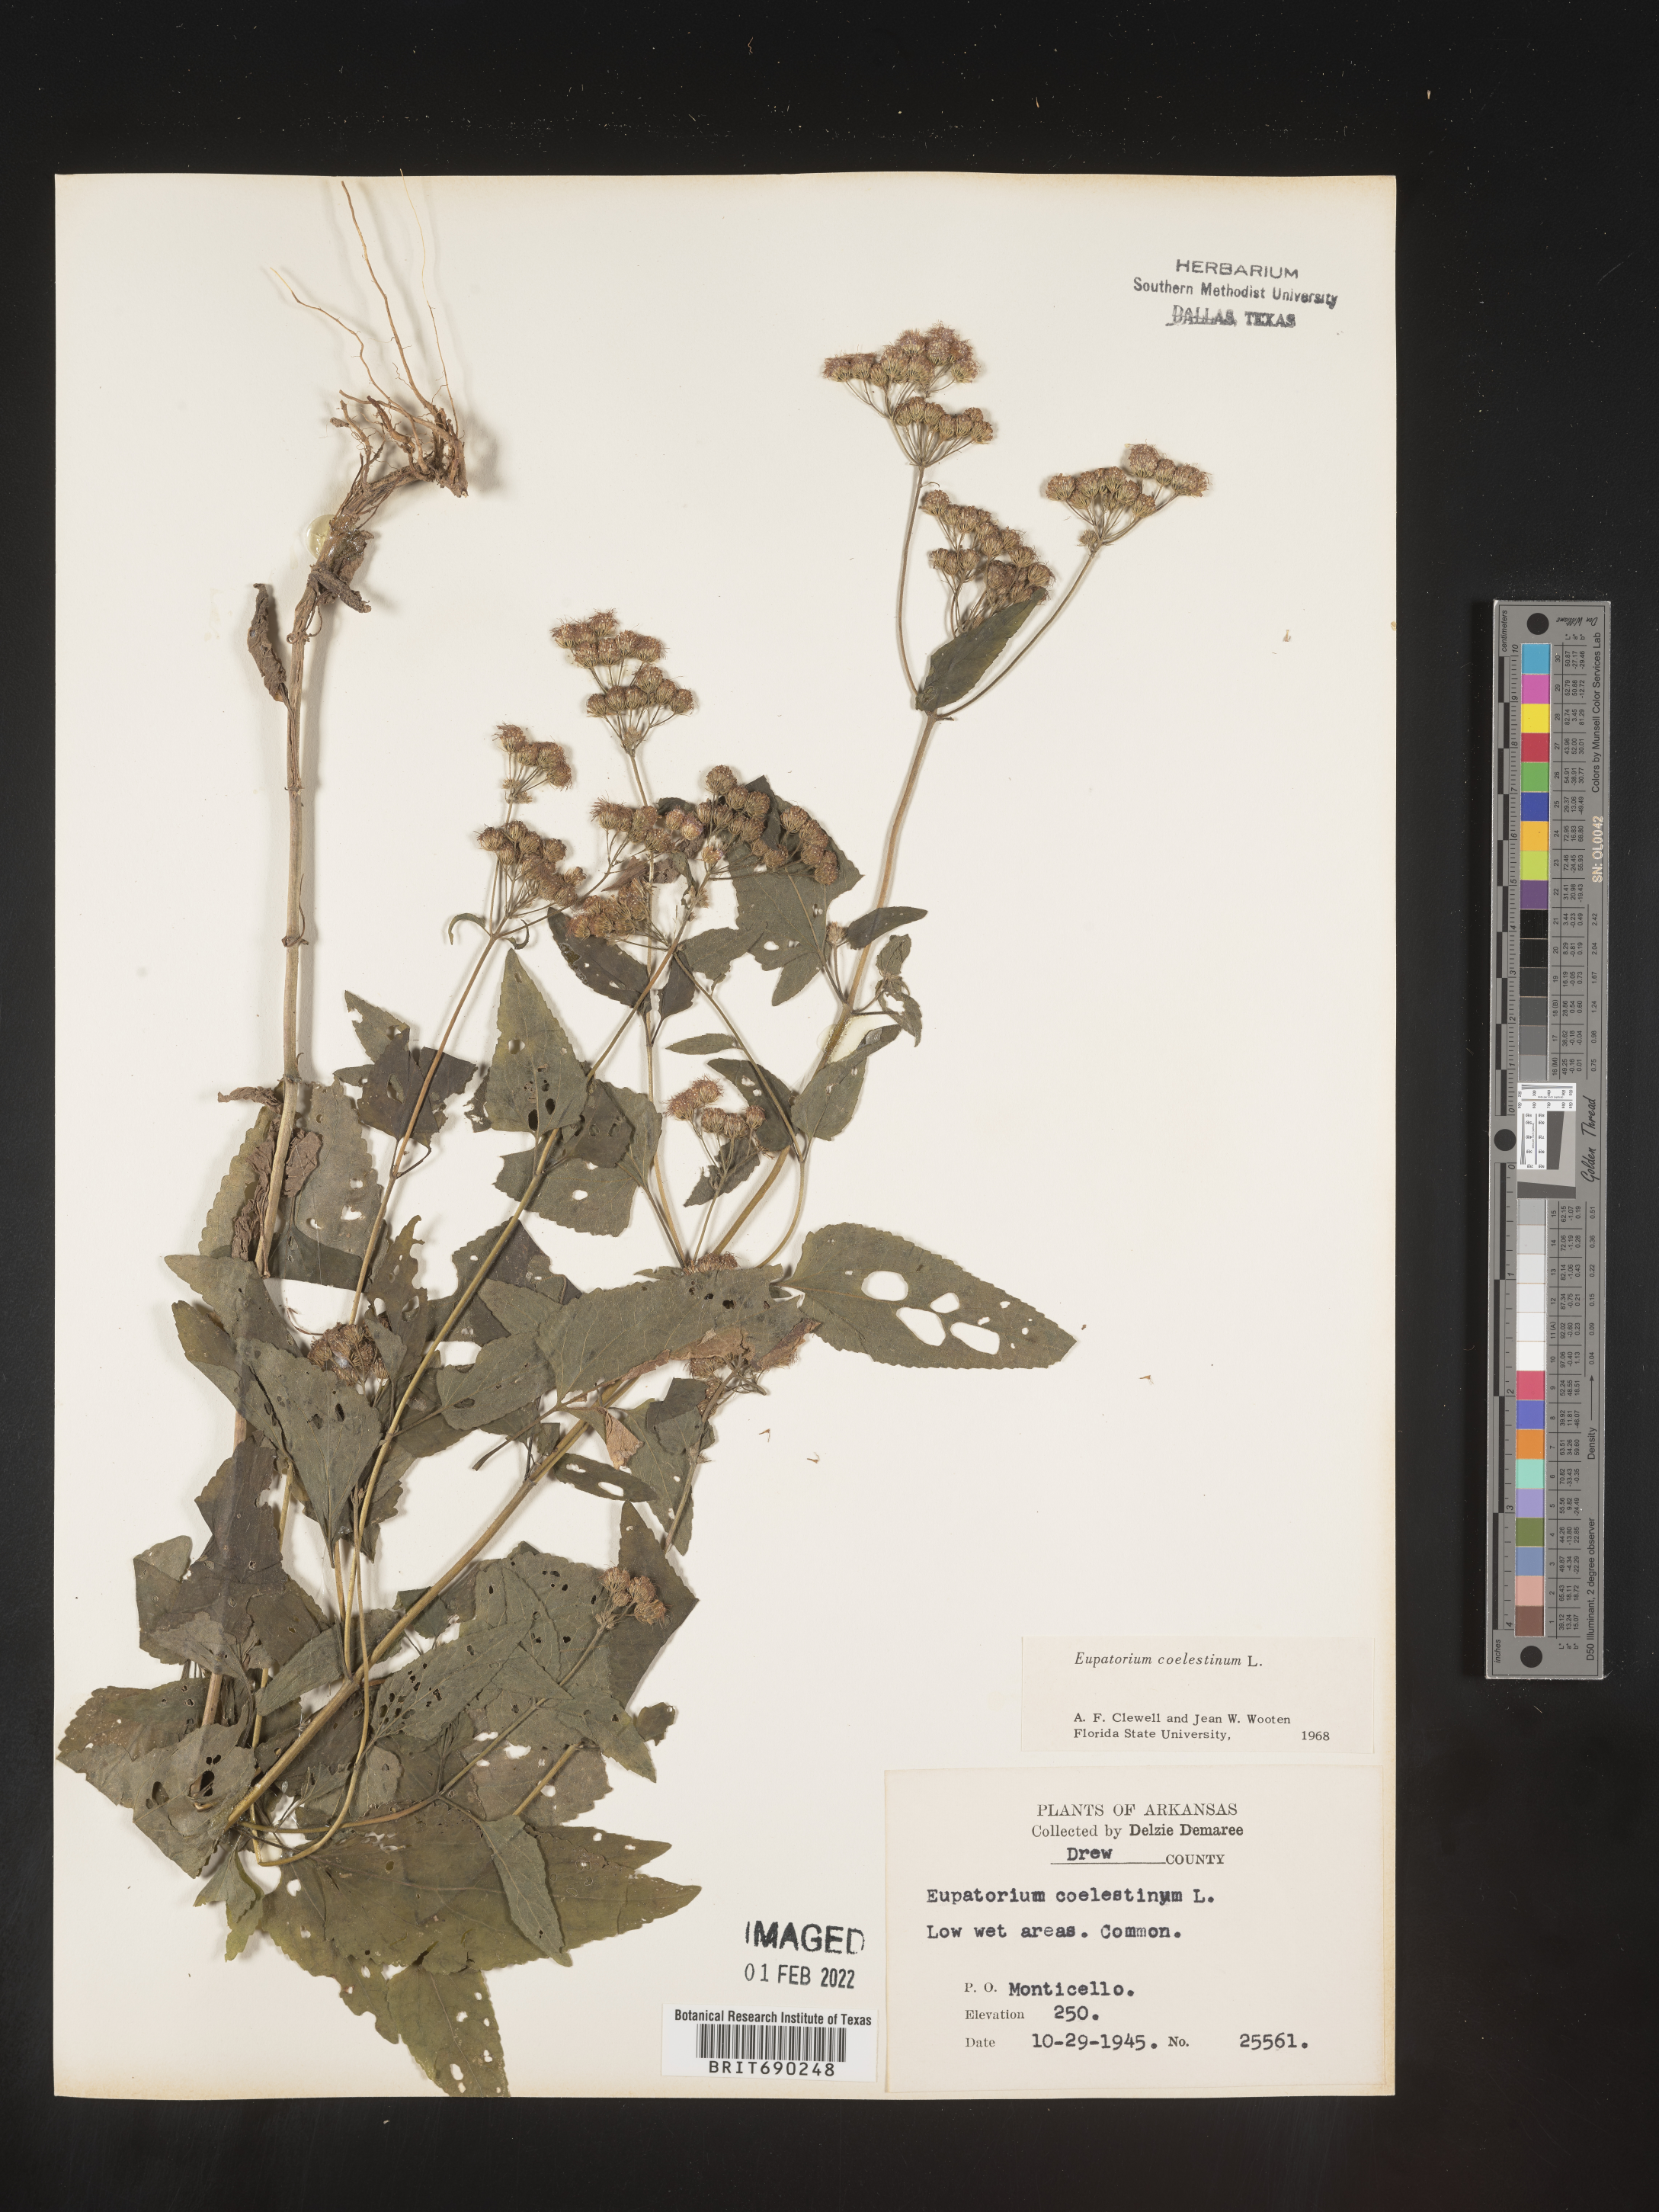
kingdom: Plantae
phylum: Tracheophyta
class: Magnoliopsida
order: Asterales
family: Asteraceae
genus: Conoclinium
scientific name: Conoclinium coelestinum
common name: Blue mistflower
